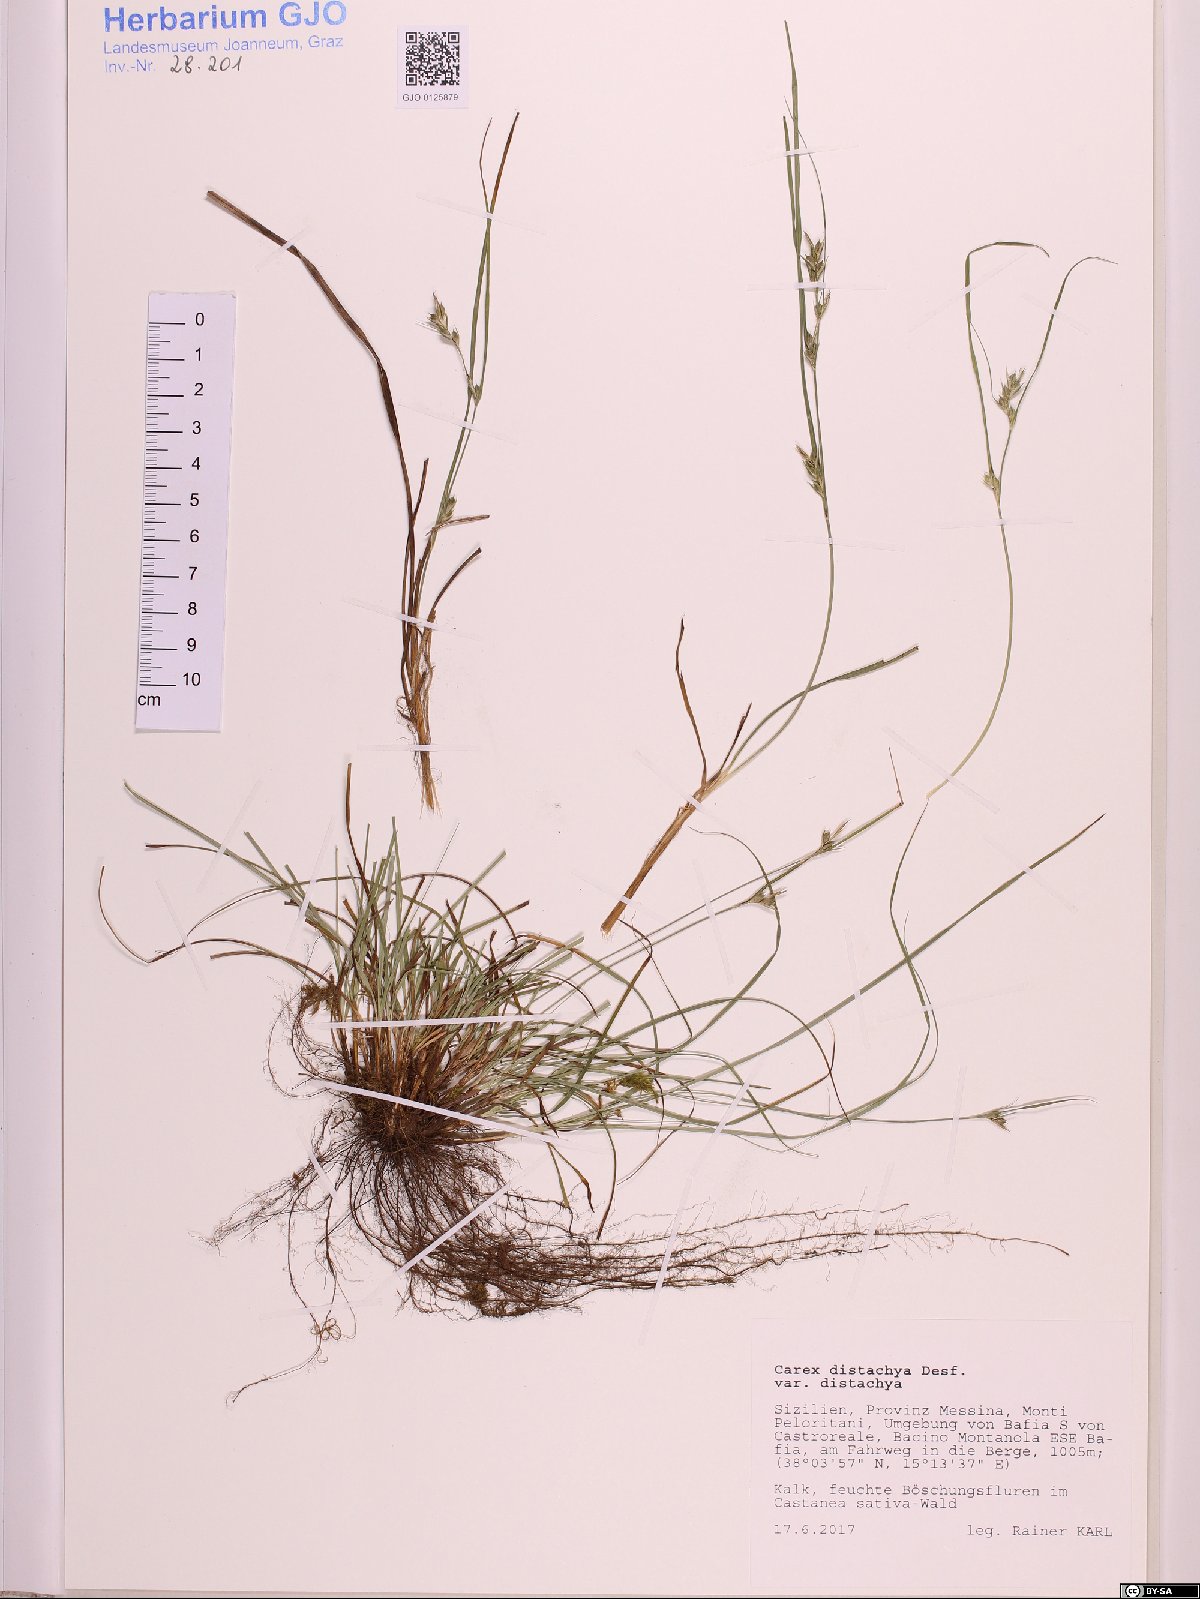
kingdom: Plantae
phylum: Tracheophyta
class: Liliopsida
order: Poales
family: Cyperaceae
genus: Carex
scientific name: Carex distachya
